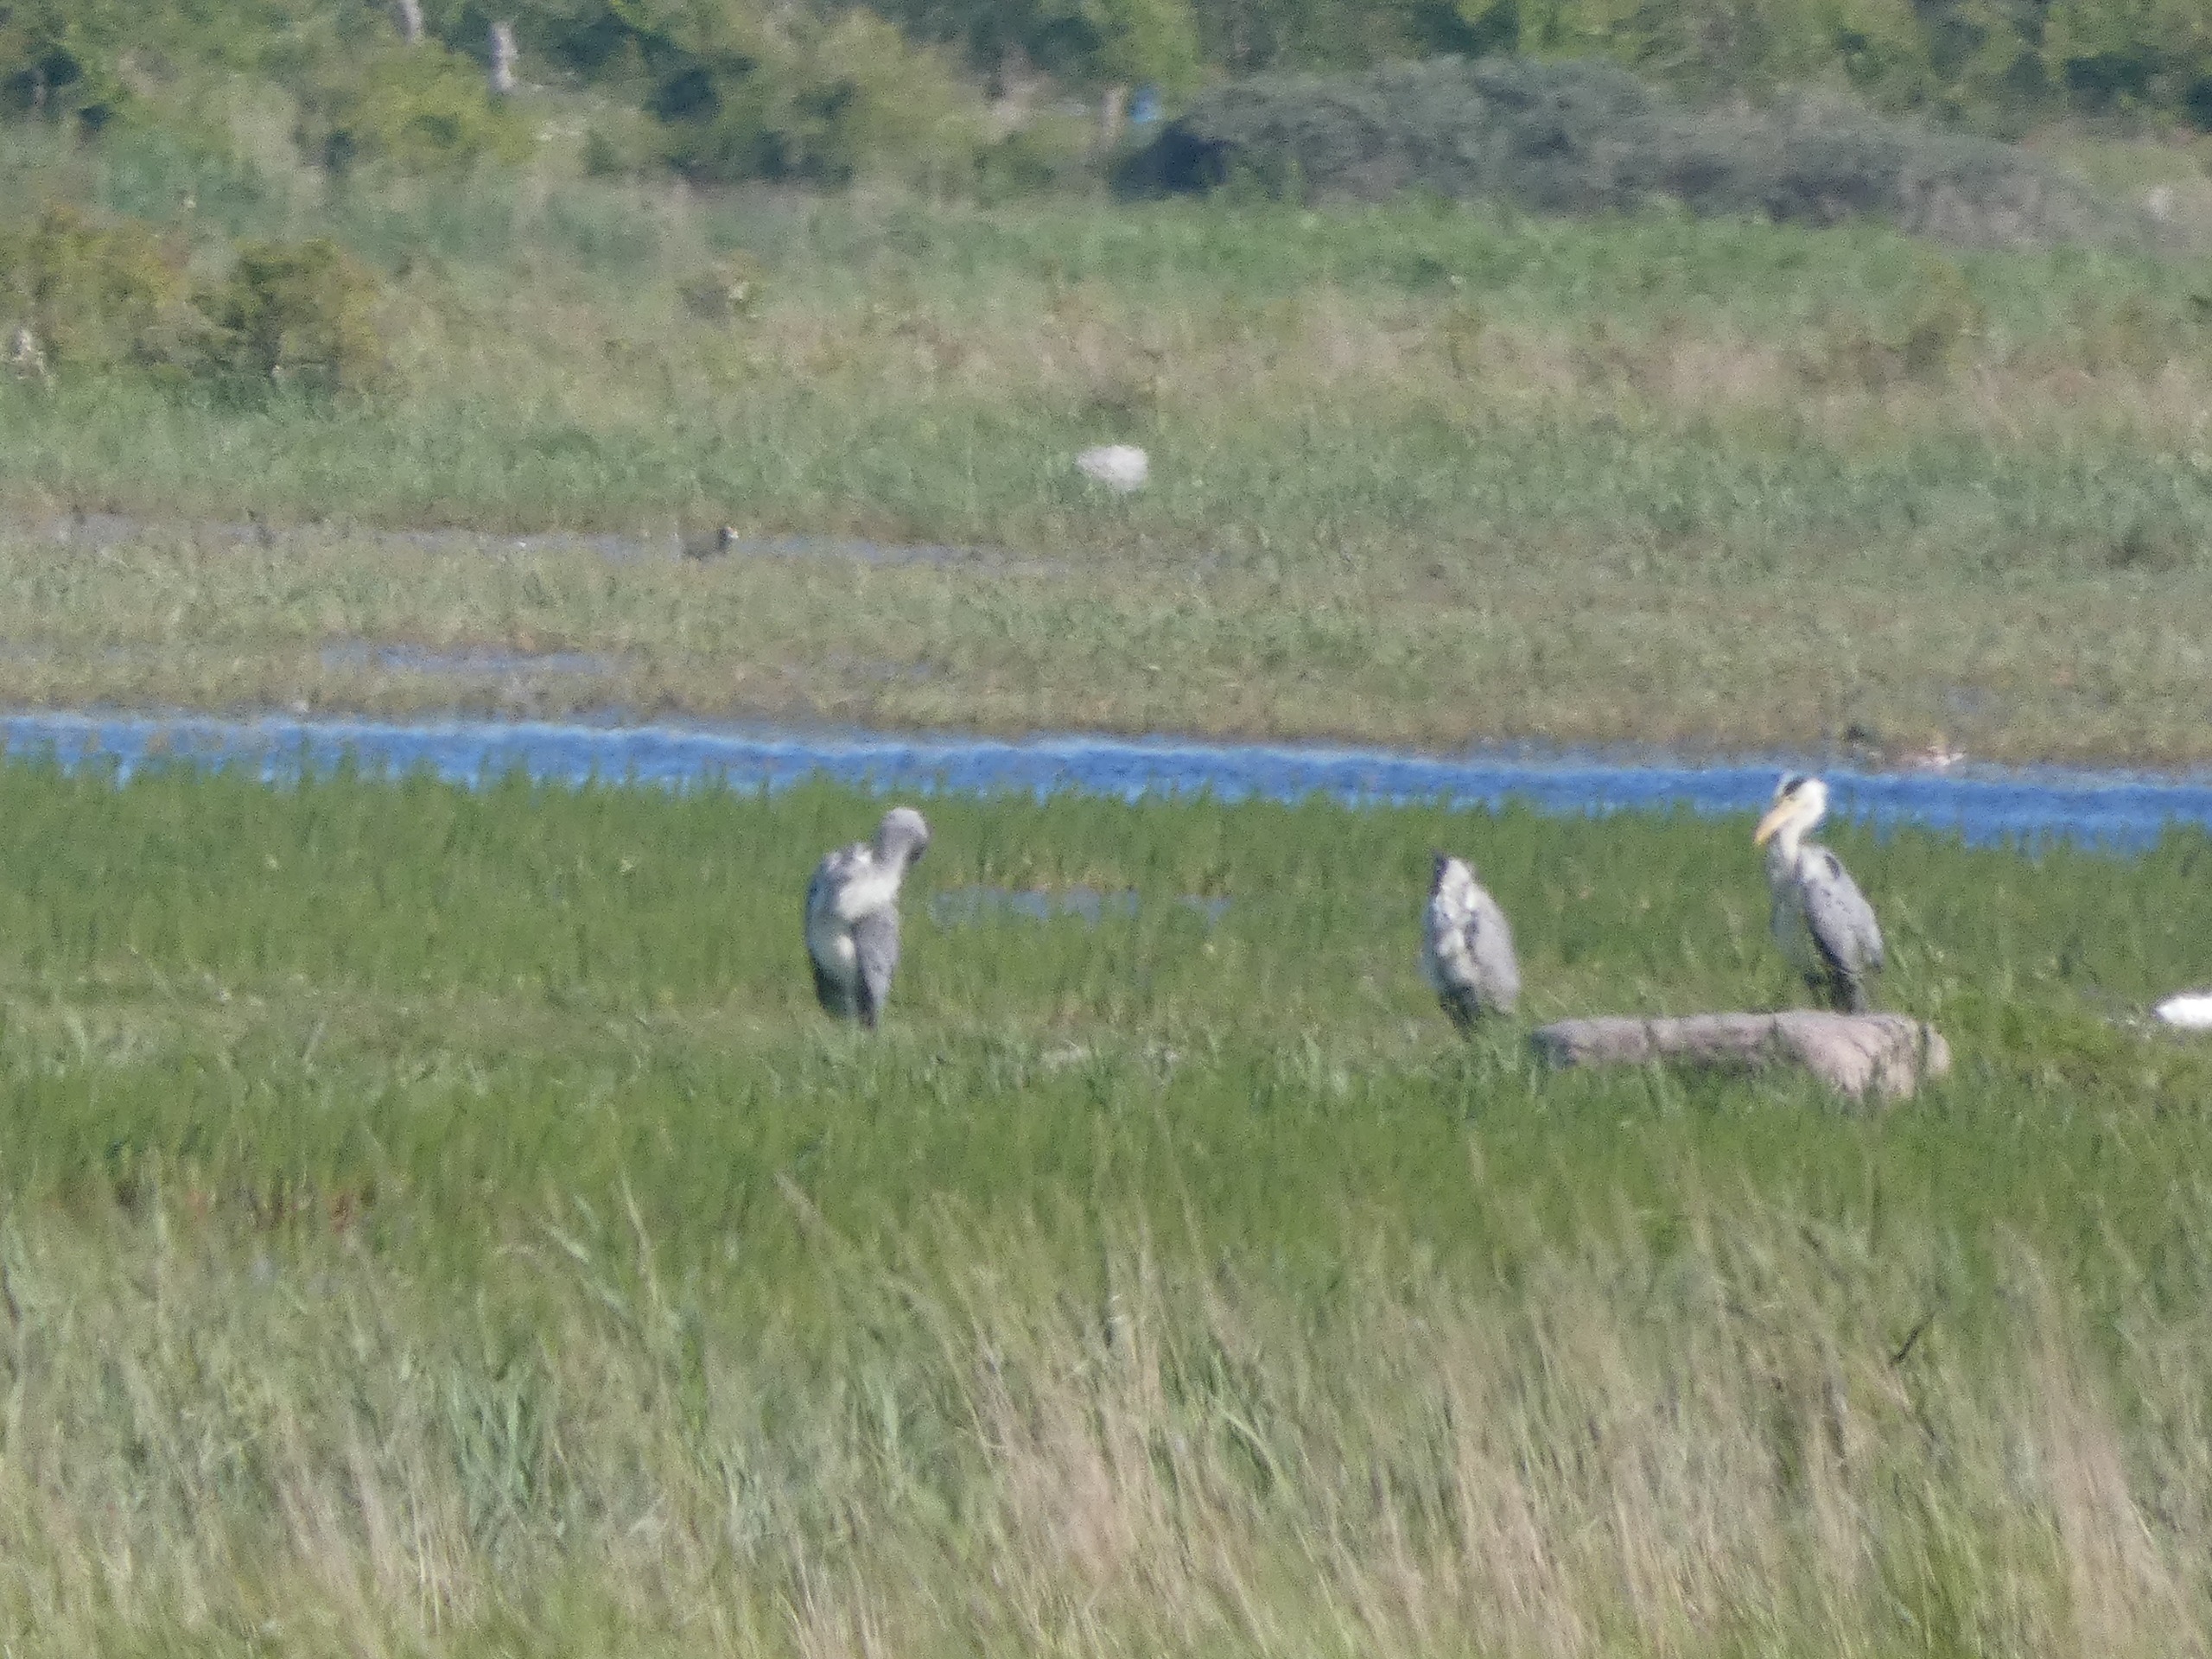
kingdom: Animalia
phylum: Chordata
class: Aves
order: Pelecaniformes
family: Ardeidae
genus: Ardea
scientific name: Ardea cinerea
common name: Fiskehejre
